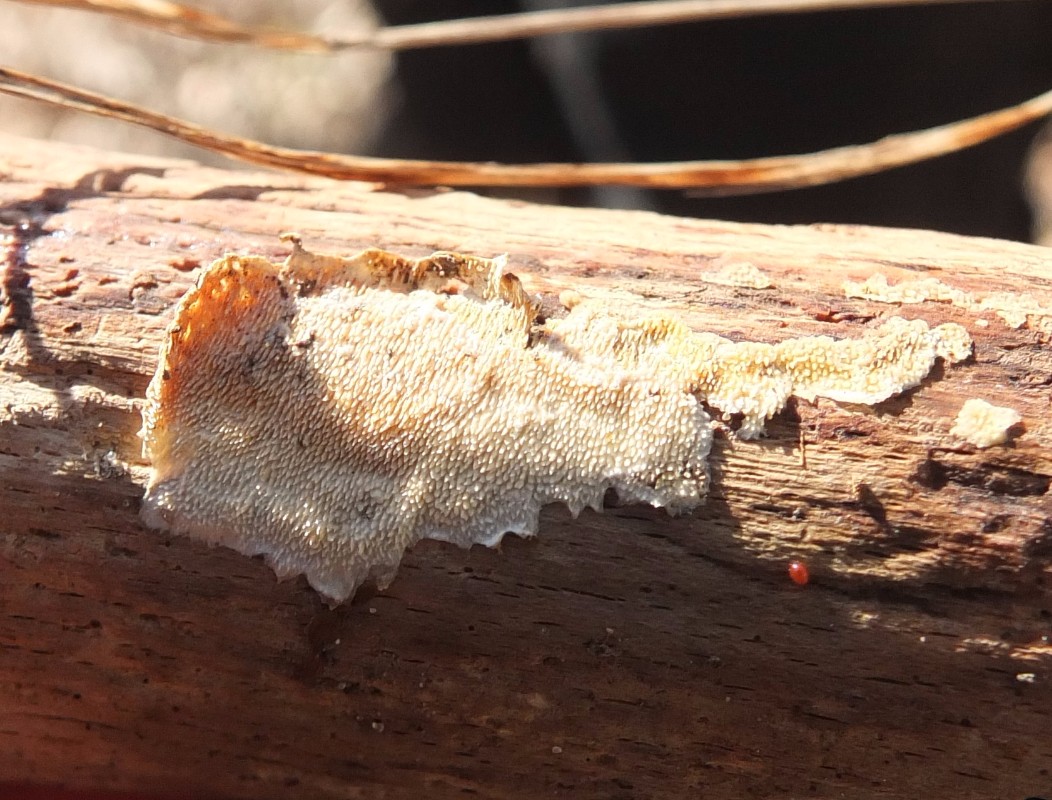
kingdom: Fungi
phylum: Basidiomycota
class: Agaricomycetes
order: Polyporales
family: Steccherinaceae
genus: Steccherinum
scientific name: Steccherinum ochraceum
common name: almindelig skønpig
